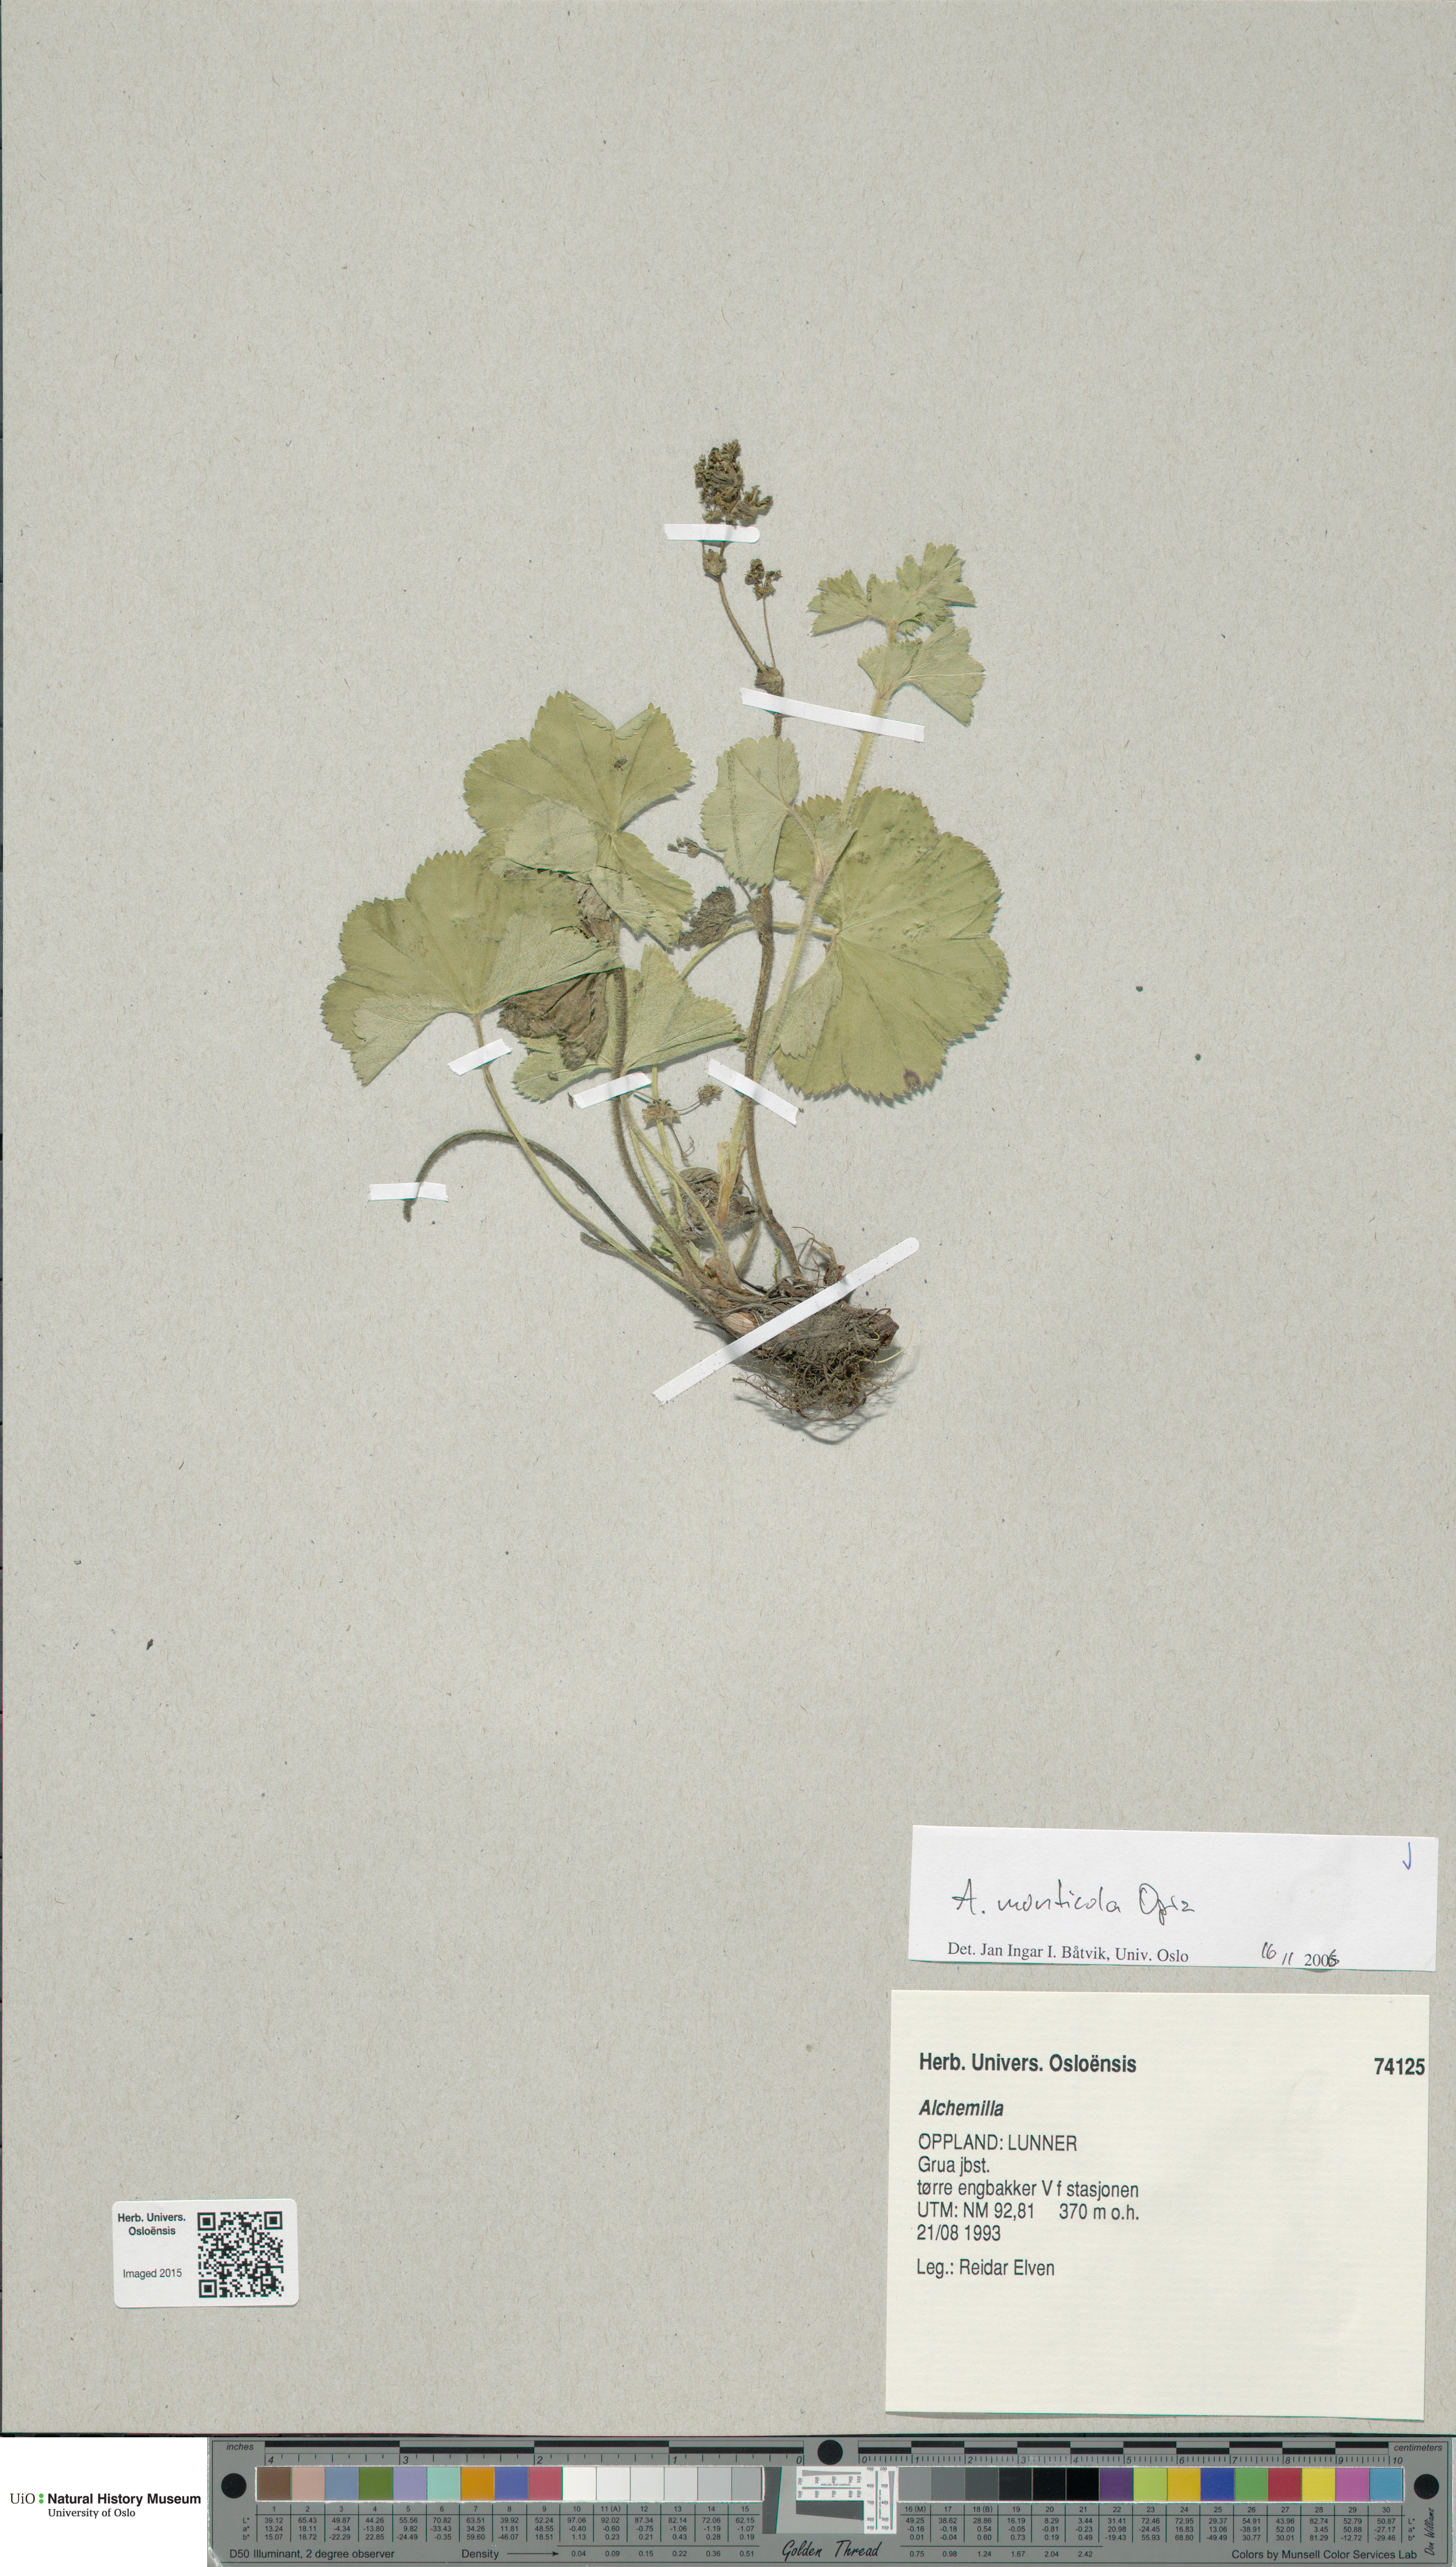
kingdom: Plantae
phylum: Tracheophyta
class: Magnoliopsida
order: Rosales
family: Rosaceae
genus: Alchemilla
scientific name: Alchemilla monticola
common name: Hairy lady's mantle
